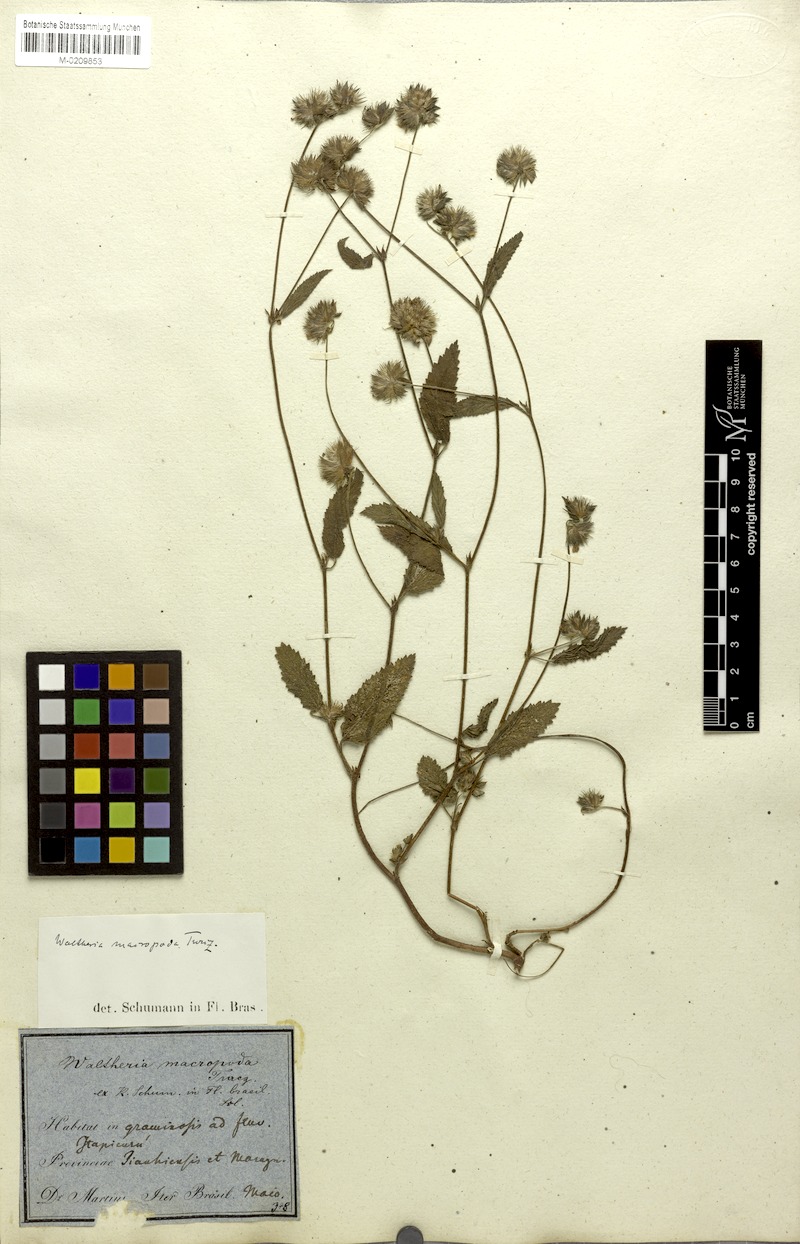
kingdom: Plantae
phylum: Tracheophyta
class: Magnoliopsida
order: Malvales
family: Malvaceae
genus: Waltheria
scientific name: Waltheria bracteosa
